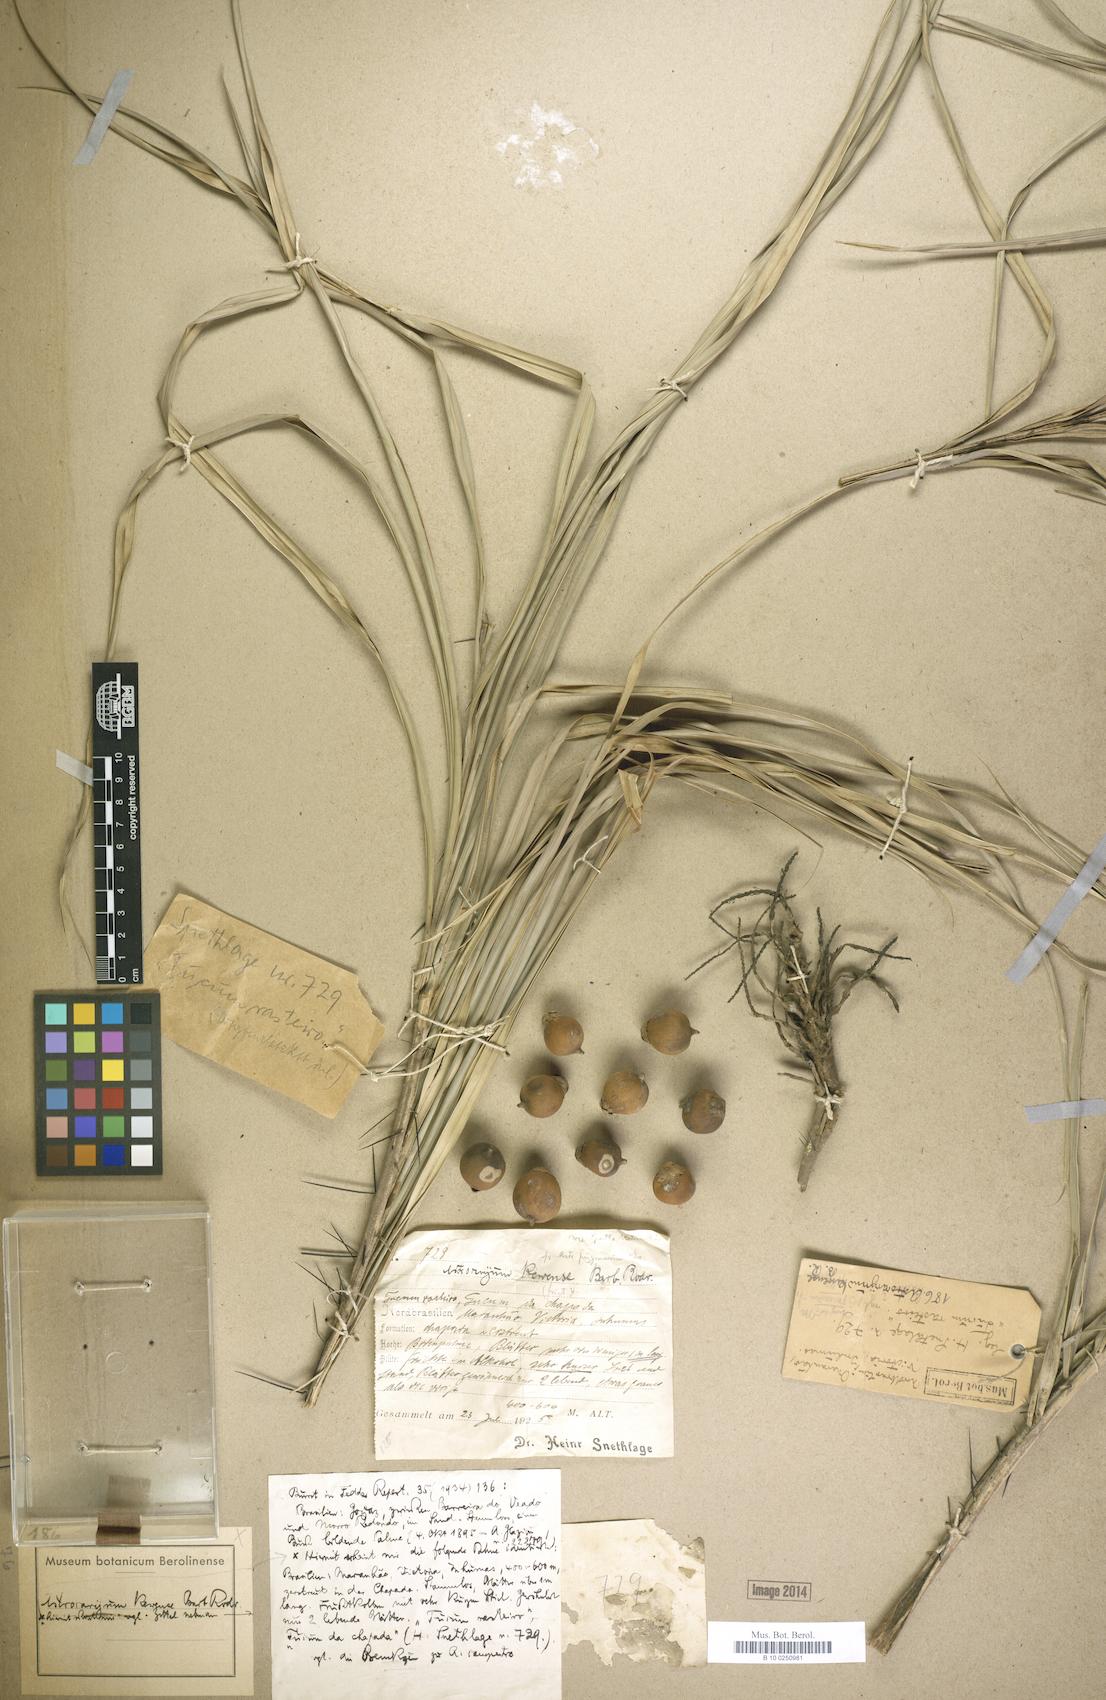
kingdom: Plantae
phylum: Tracheophyta
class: Liliopsida
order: Arecales
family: Arecaceae
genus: Astrocaryum
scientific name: Astrocaryum kewense
